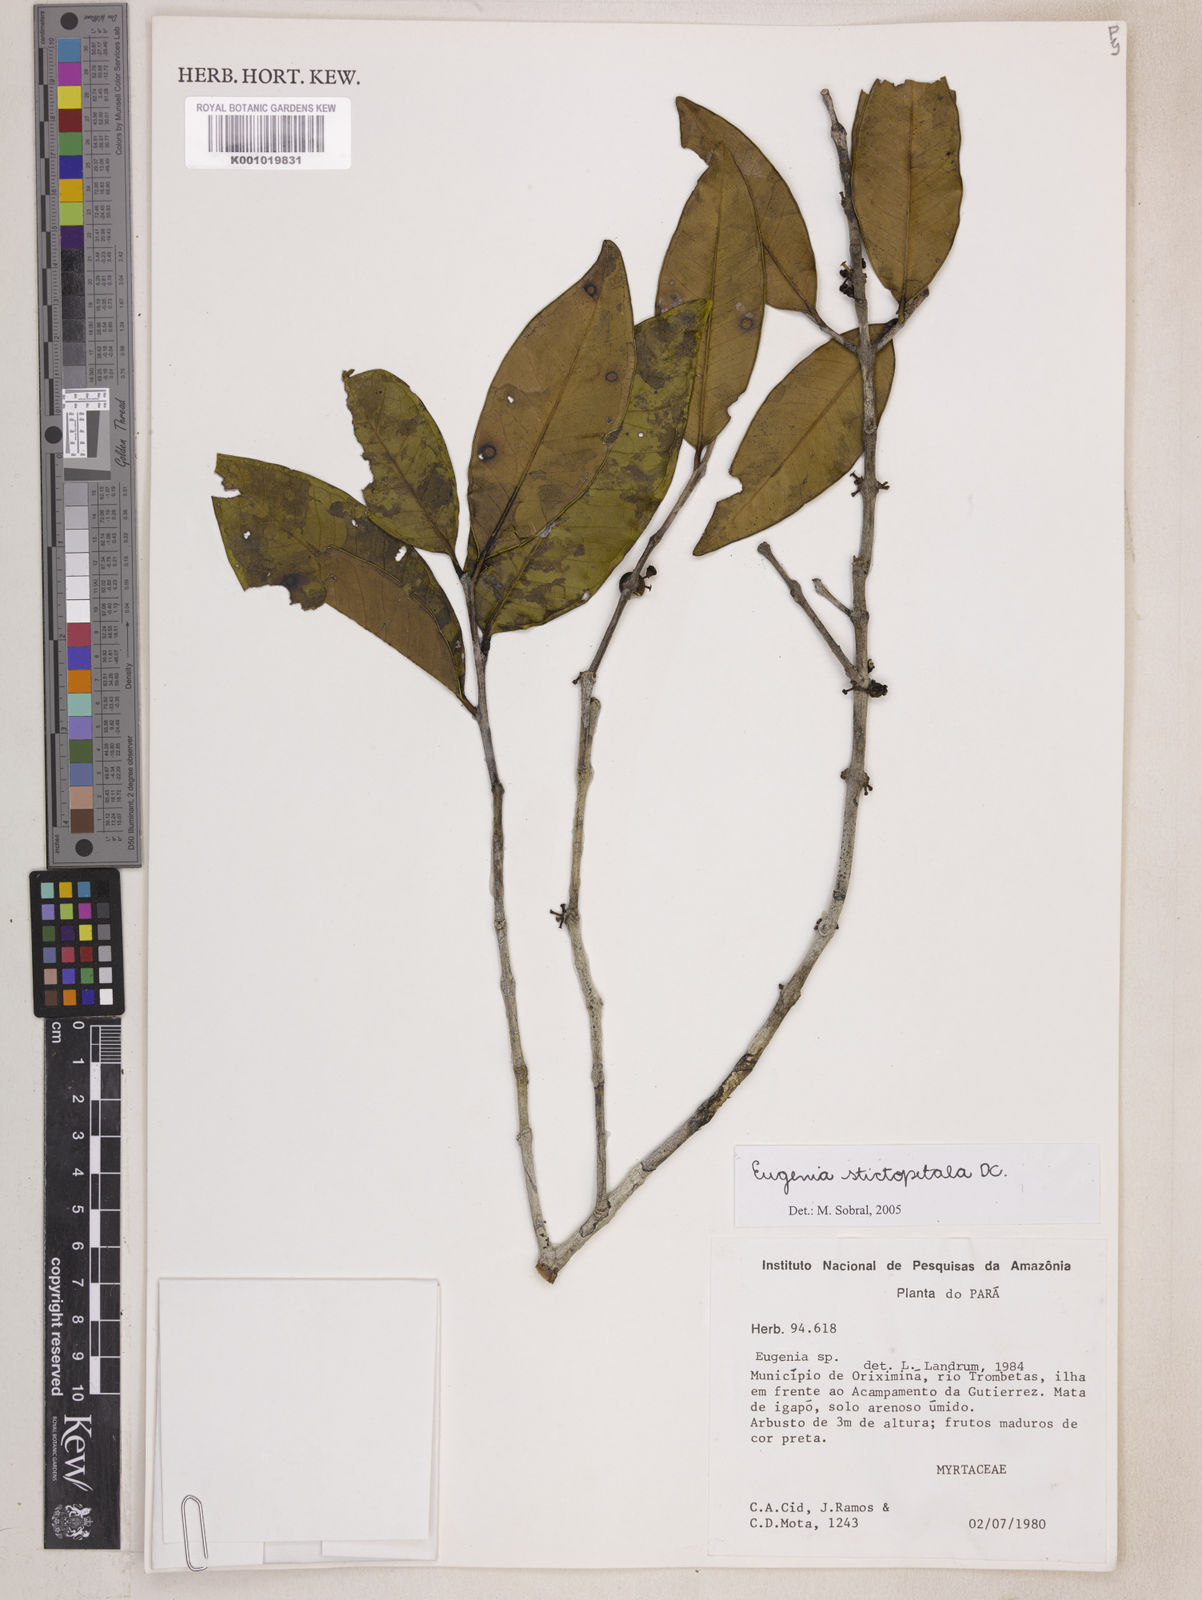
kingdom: Plantae
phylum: Tracheophyta
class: Magnoliopsida
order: Myrtales
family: Myrtaceae
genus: Eugenia
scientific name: Eugenia stictopetala
